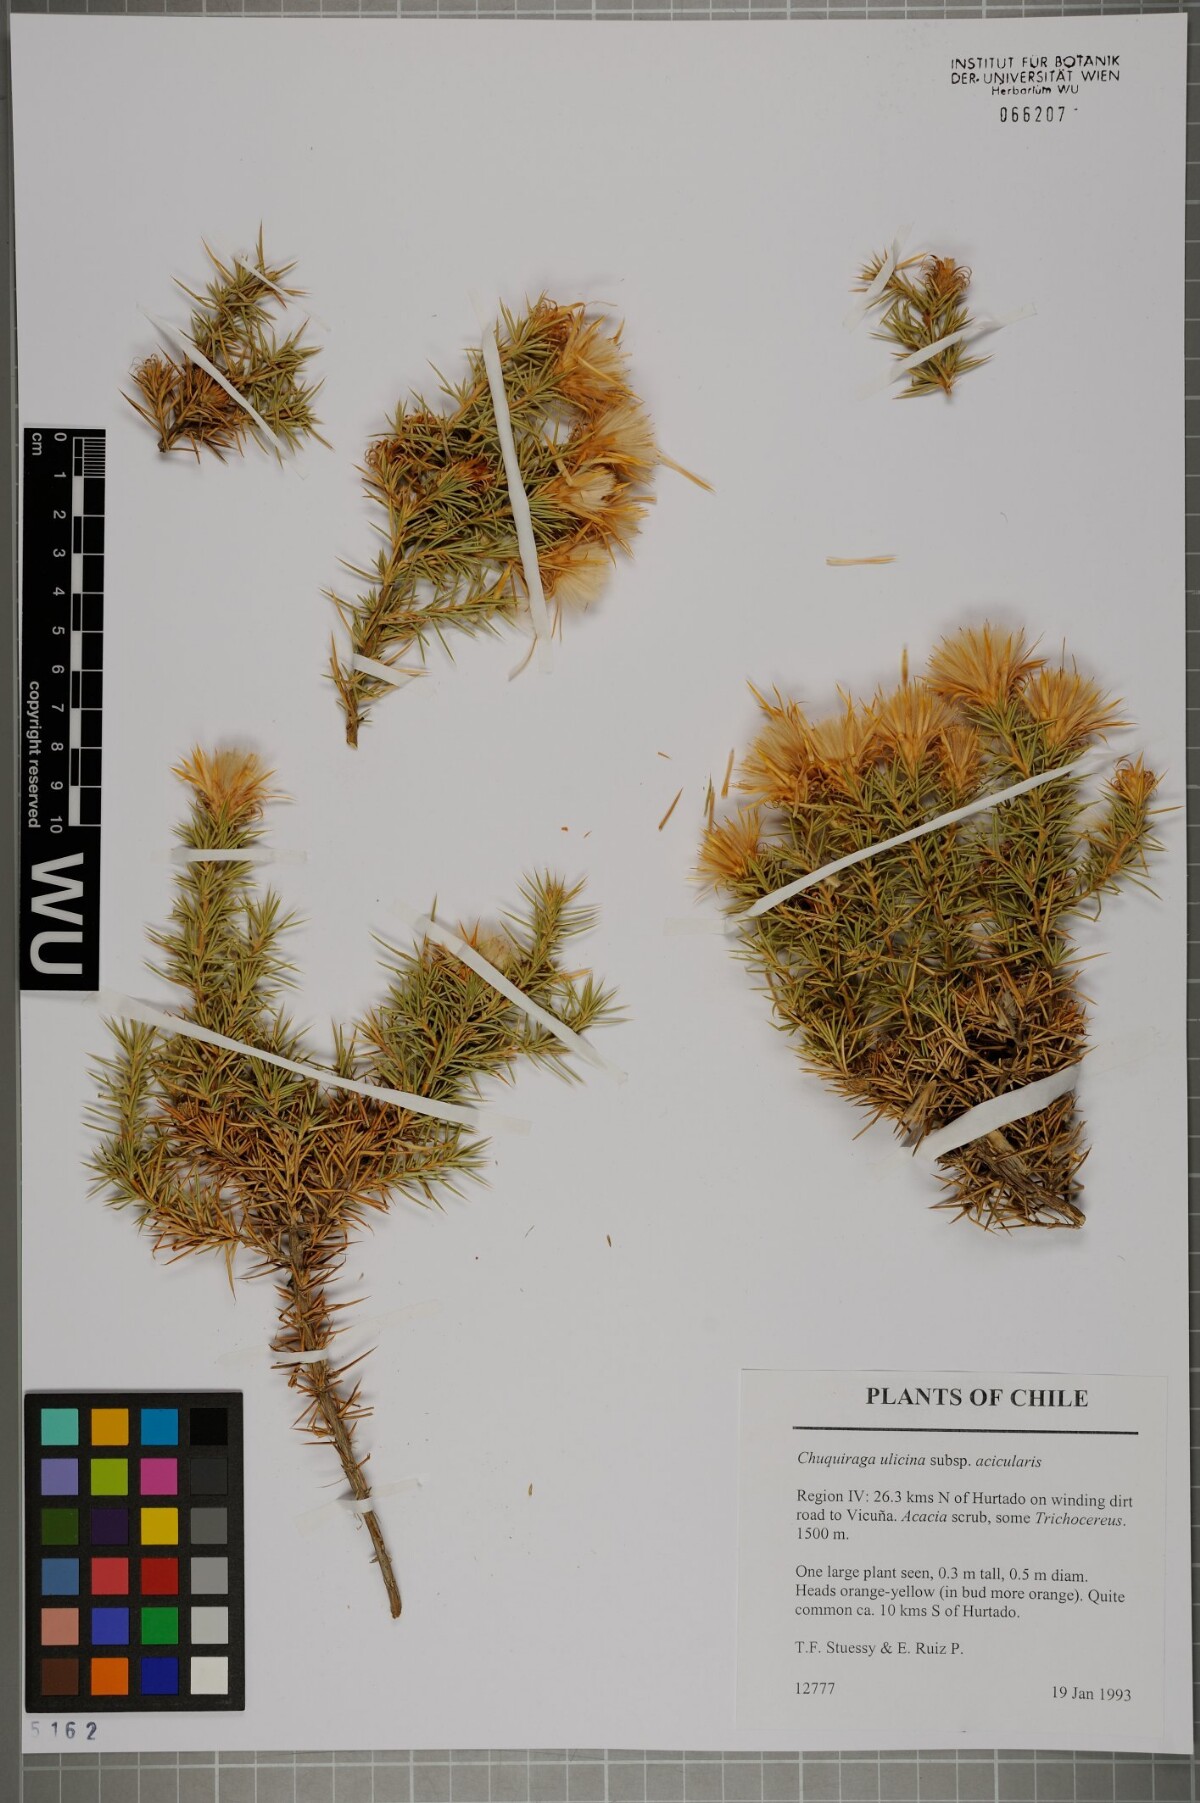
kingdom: Plantae
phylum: Tracheophyta
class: Magnoliopsida
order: Asterales
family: Asteraceae
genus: Chuquiraga
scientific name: Chuquiraga ulicina
